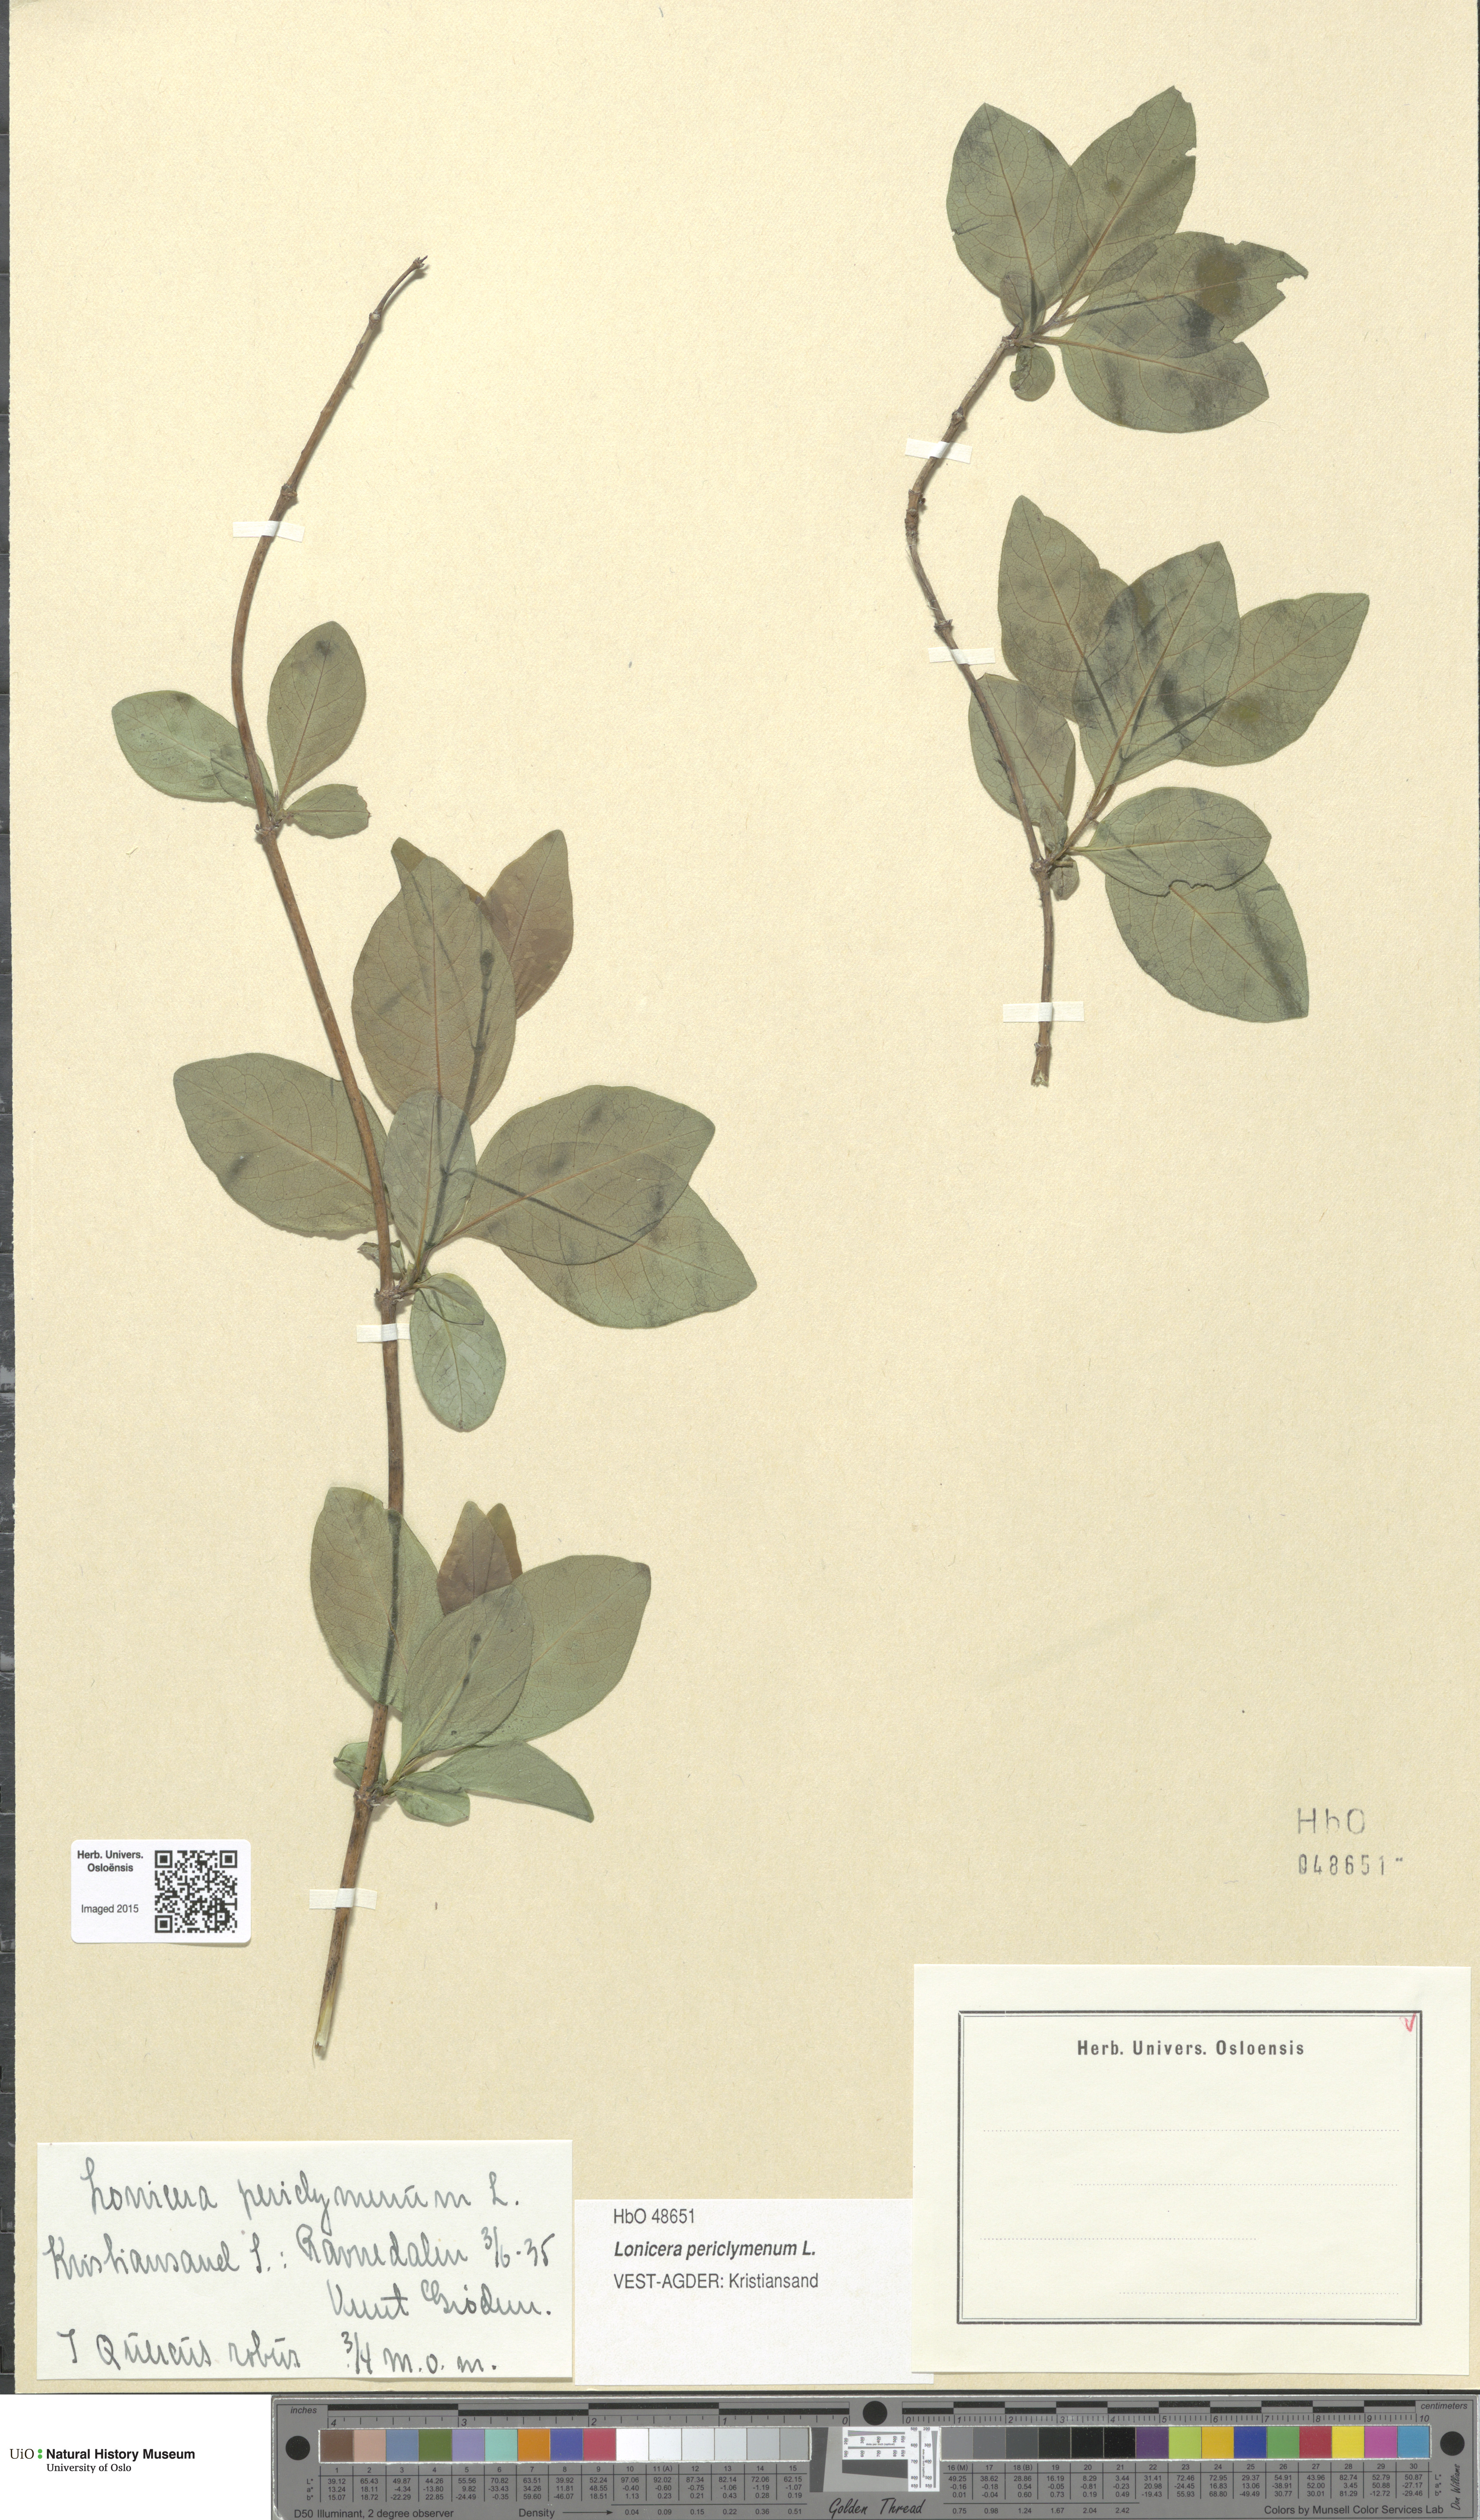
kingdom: Plantae
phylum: Tracheophyta
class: Magnoliopsida
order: Dipsacales
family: Caprifoliaceae
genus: Lonicera
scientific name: Lonicera periclymenum
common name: European honeysuckle
